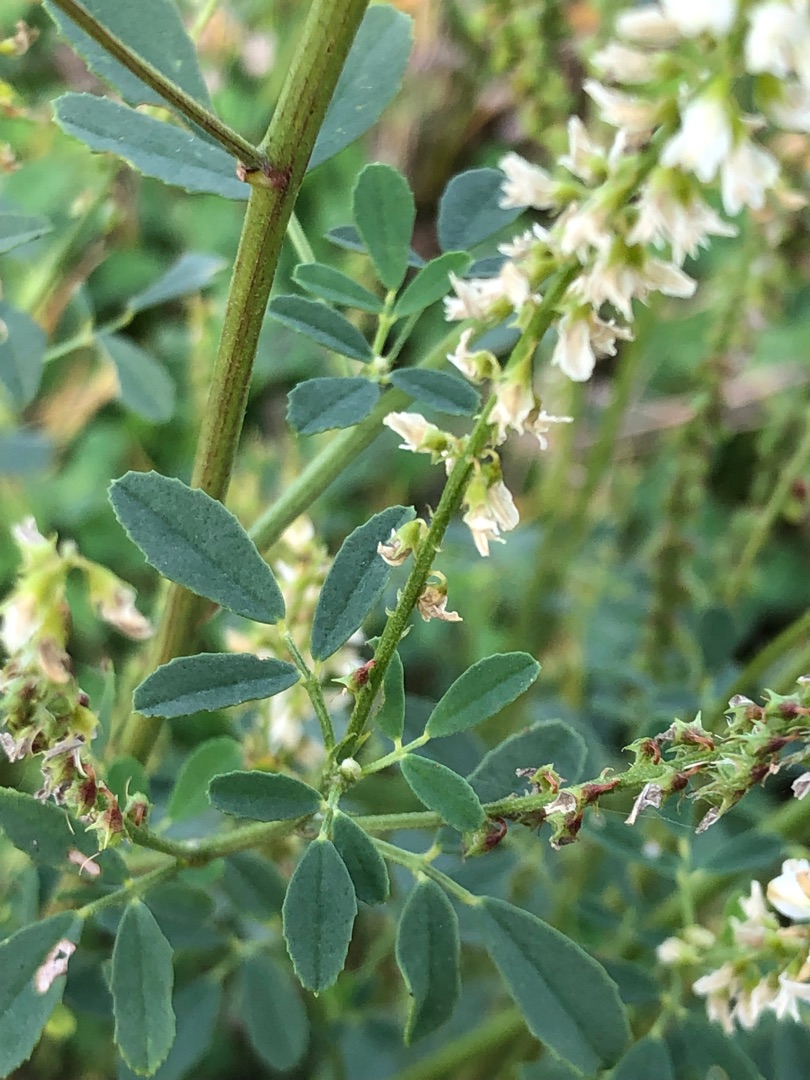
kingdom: Plantae
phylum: Tracheophyta
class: Magnoliopsida
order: Fabales
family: Fabaceae
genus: Melilotus
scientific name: Melilotus albus
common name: Hvid stenkløver
